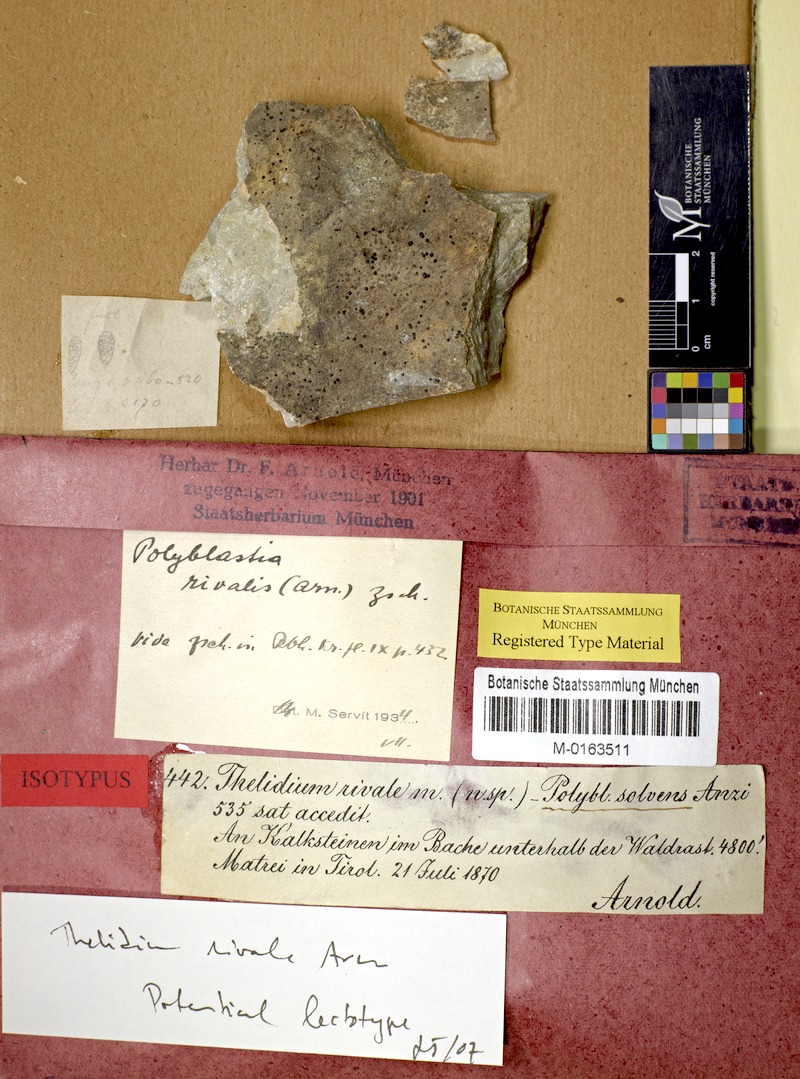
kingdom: Fungi
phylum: Ascomycota
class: Eurotiomycetes
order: Verrucariales
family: Verrucariaceae
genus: Polyblastia
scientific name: Polyblastia ardesiaca
